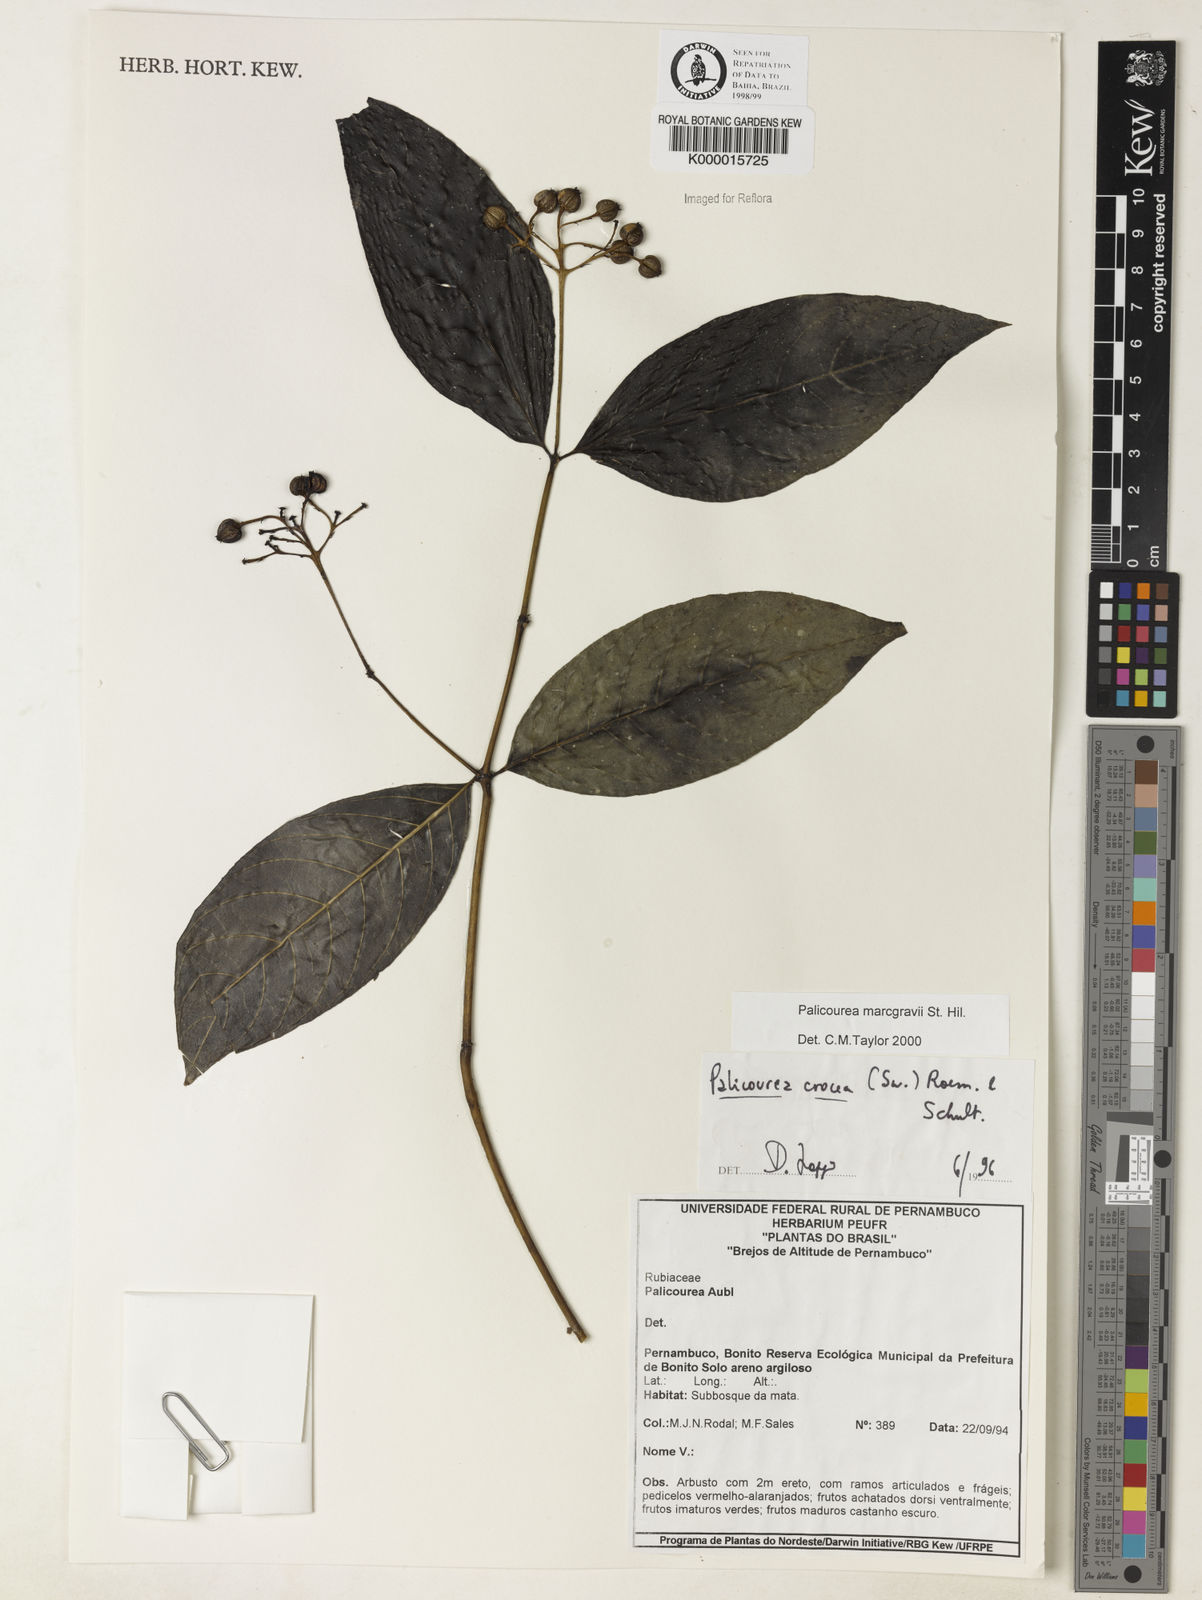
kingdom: Plantae
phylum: Tracheophyta
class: Magnoliopsida
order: Gentianales
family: Rubiaceae
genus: Palicourea
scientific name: Palicourea marcgravii
